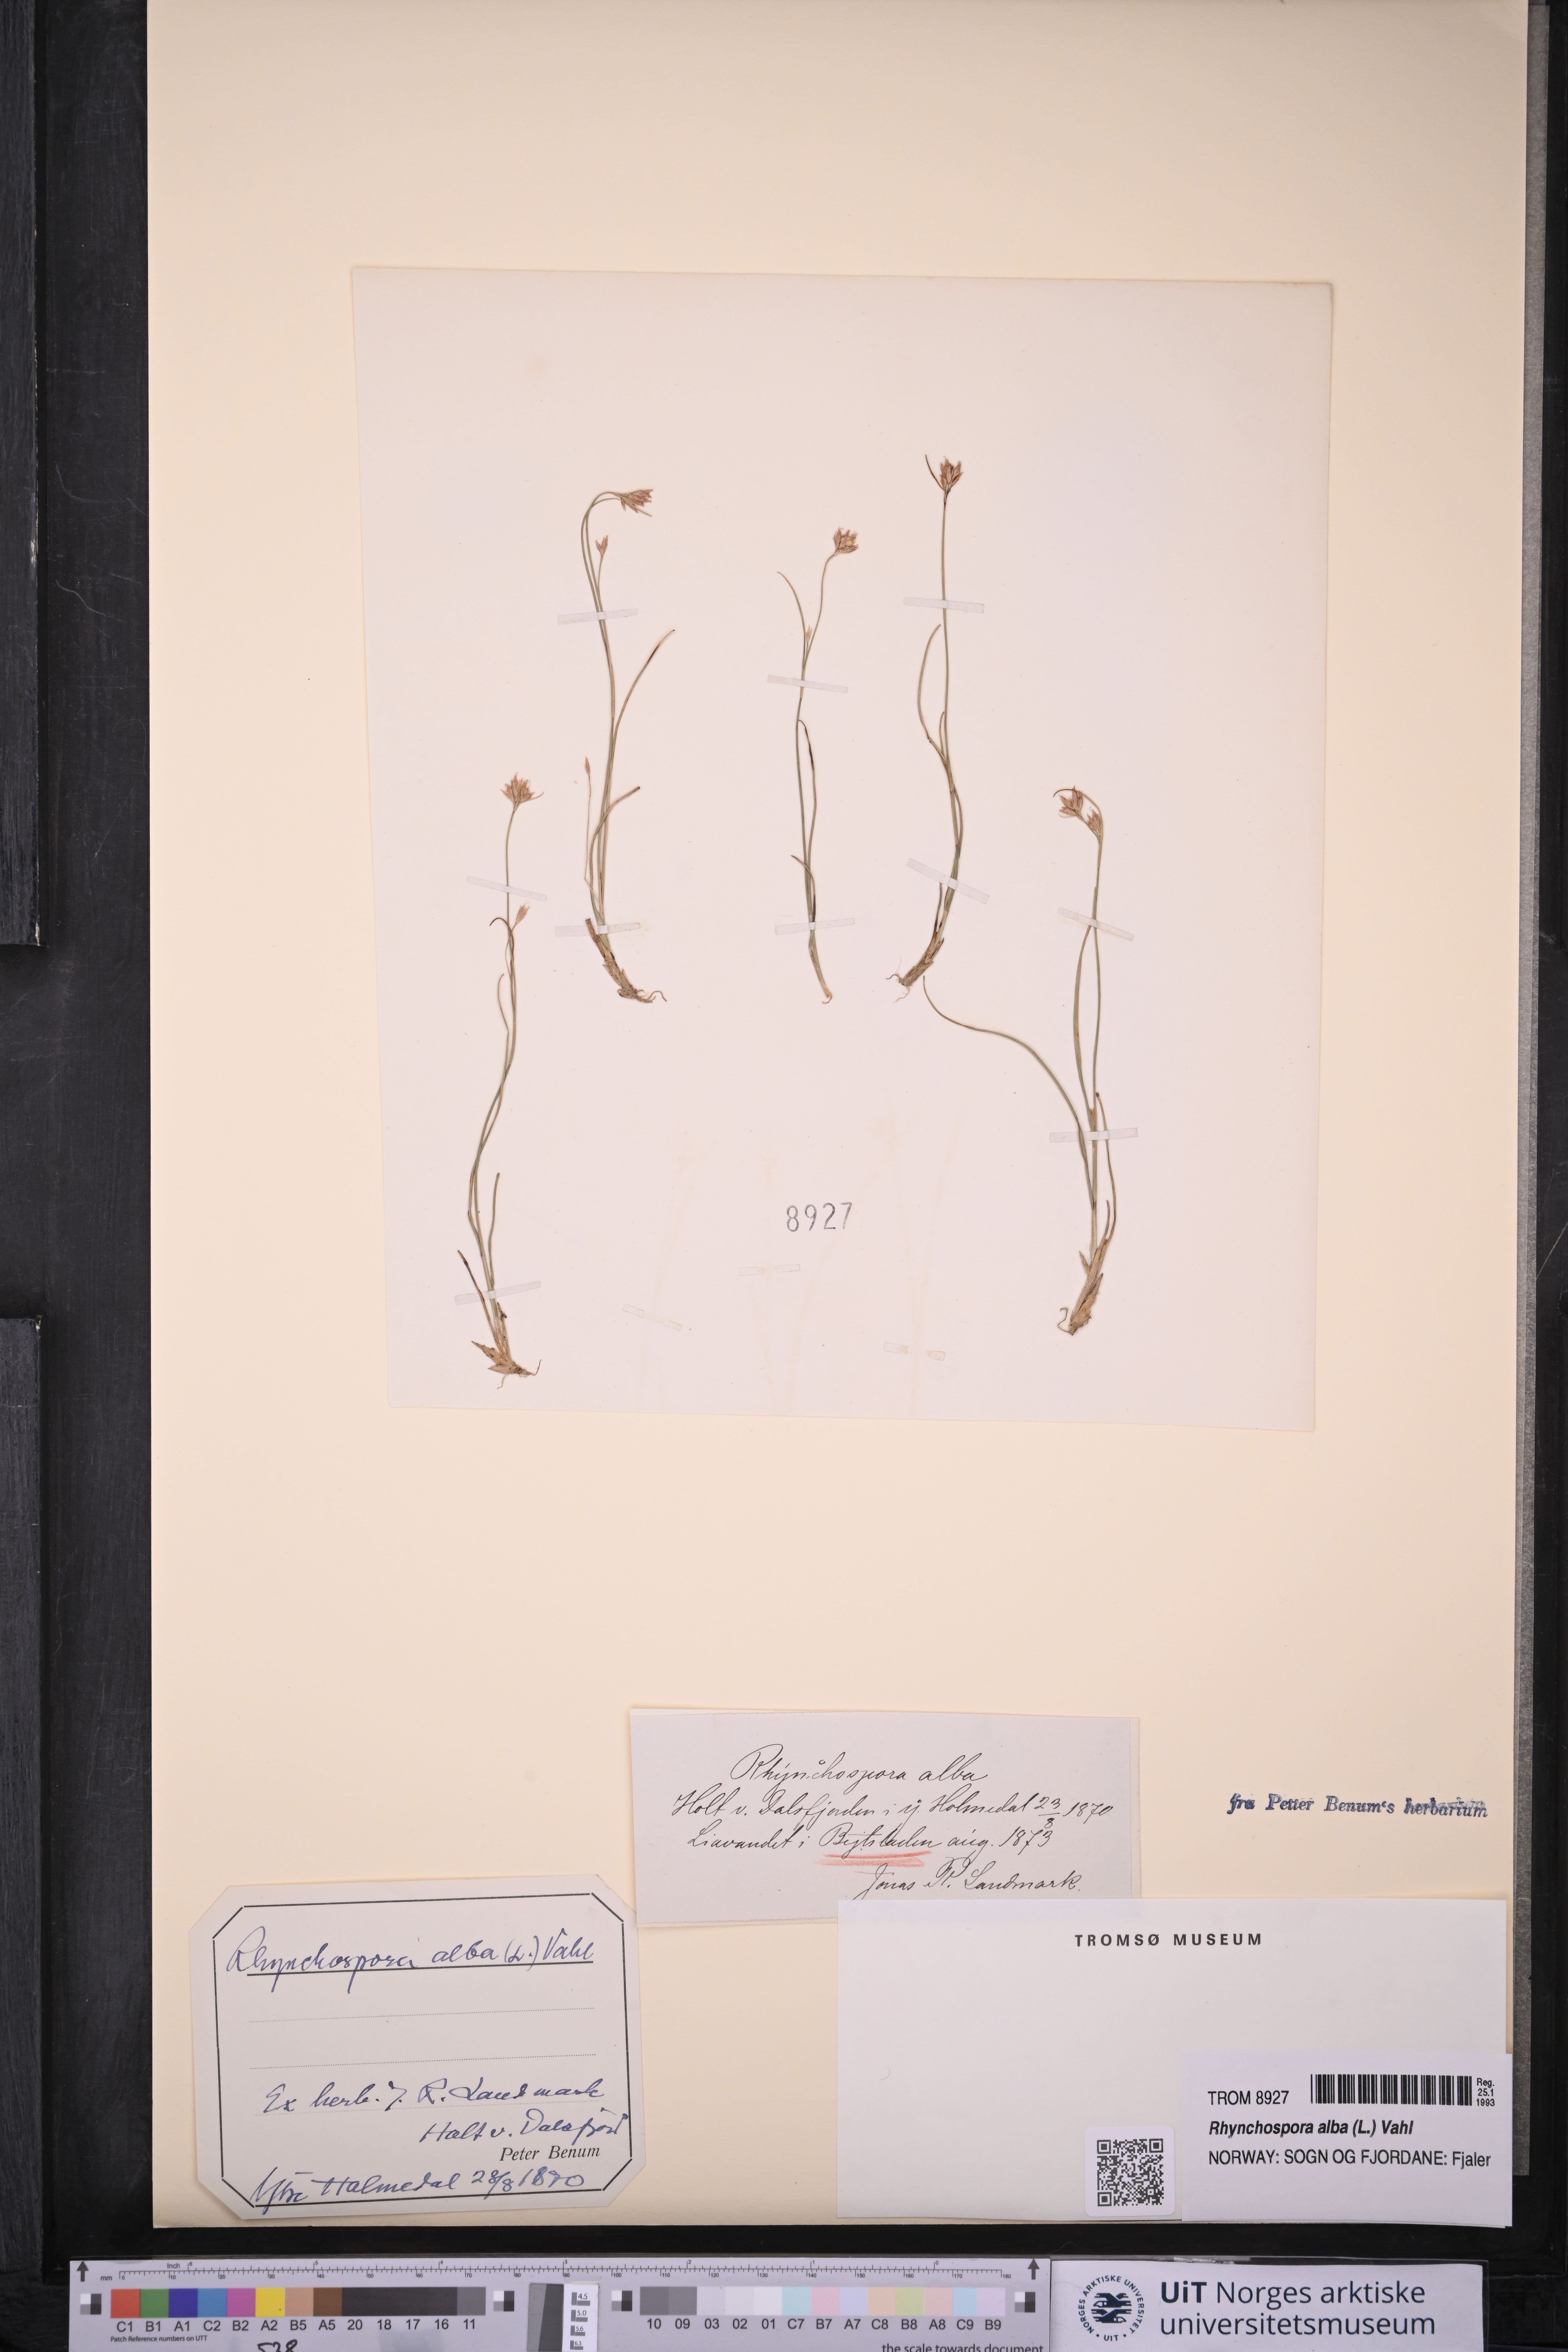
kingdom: Plantae
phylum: Tracheophyta
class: Liliopsida
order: Poales
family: Cyperaceae
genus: Rhynchospora
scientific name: Rhynchospora alba
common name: White beak-sedge
